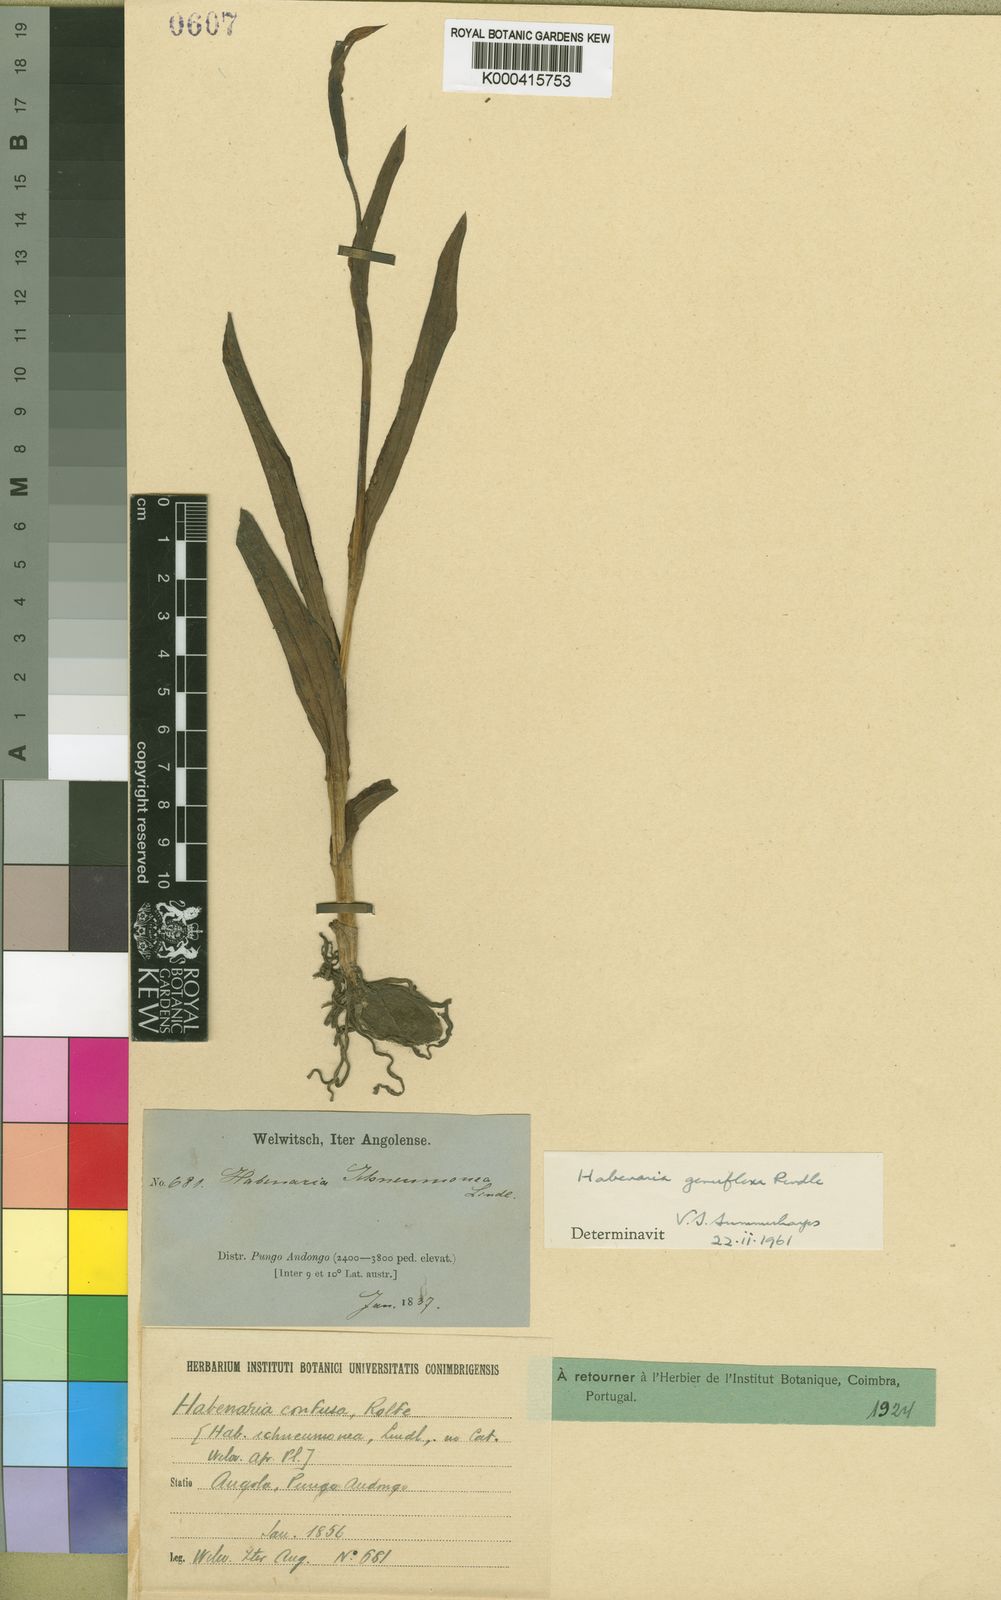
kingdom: Plantae
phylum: Tracheophyta
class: Liliopsida
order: Asparagales
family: Orchidaceae
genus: Habenaria
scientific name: Habenaria genuflexa
